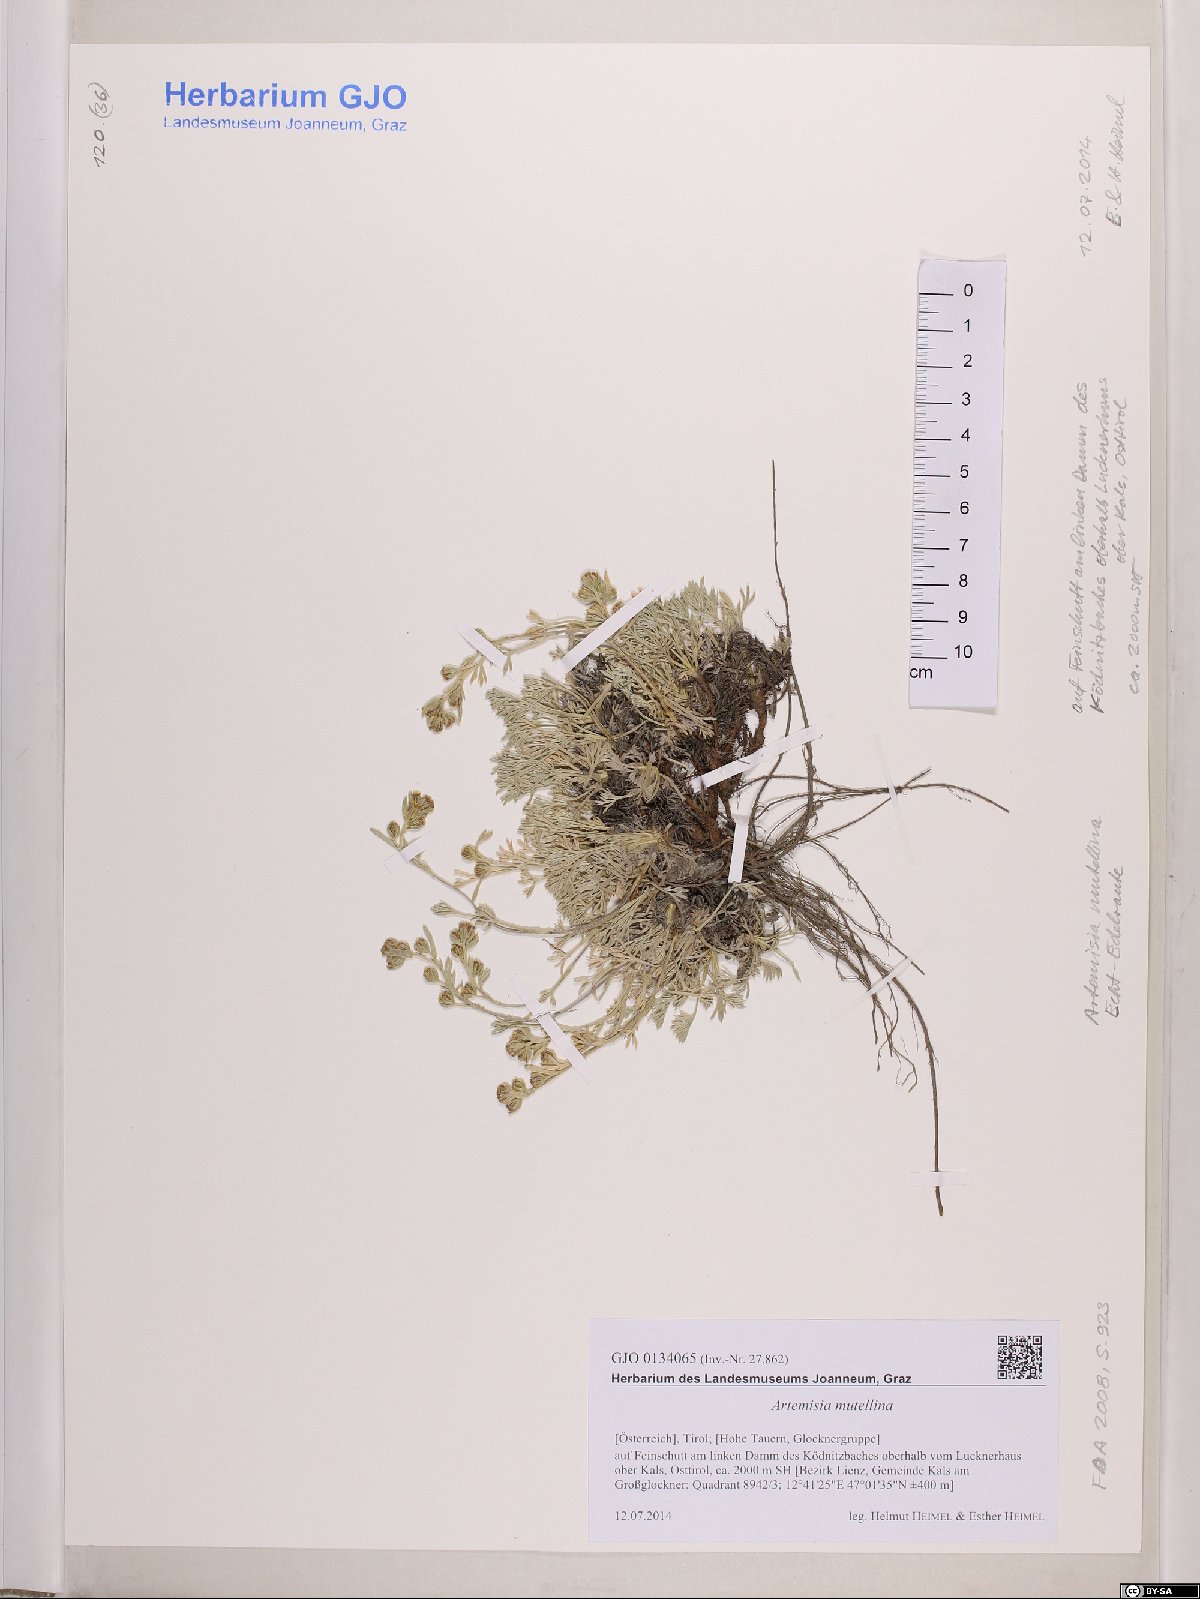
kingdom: Plantae
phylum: Tracheophyta
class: Magnoliopsida
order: Asterales
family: Asteraceae
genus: Artemisia
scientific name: Artemisia mutellina
